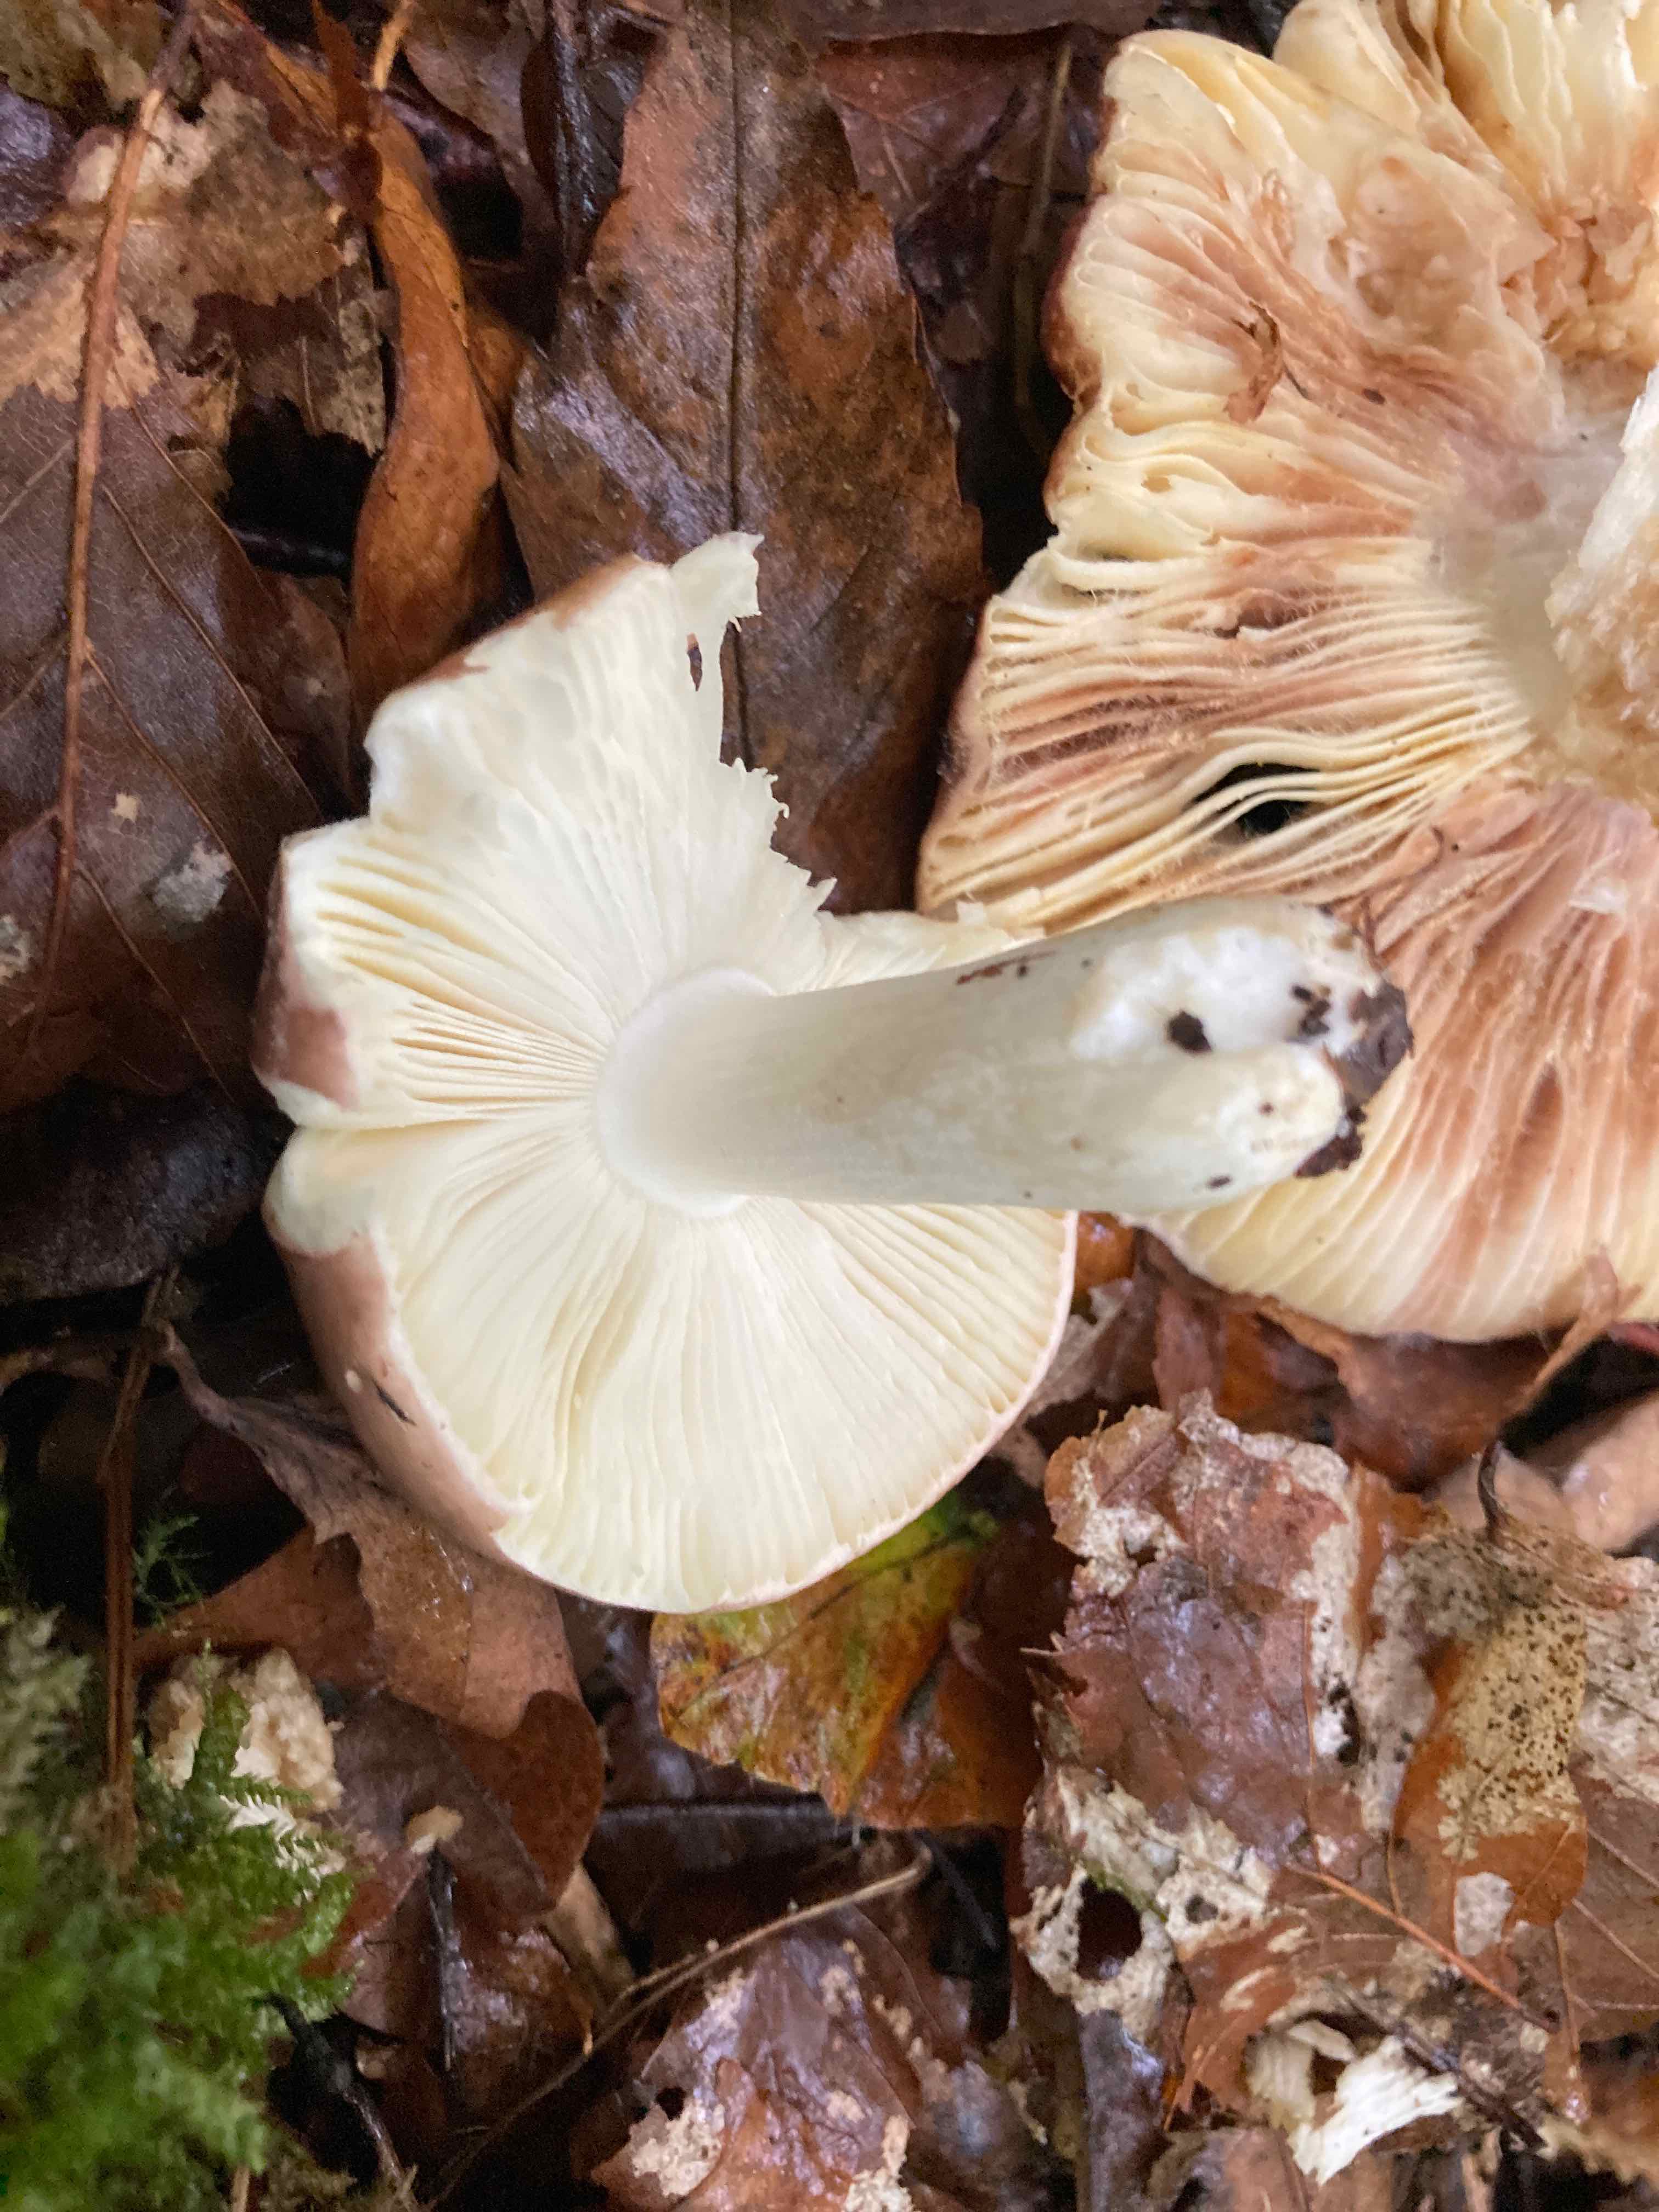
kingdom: Fungi
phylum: Basidiomycota
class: Agaricomycetes
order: Russulales
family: Russulaceae
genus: Russula
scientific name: Russula
